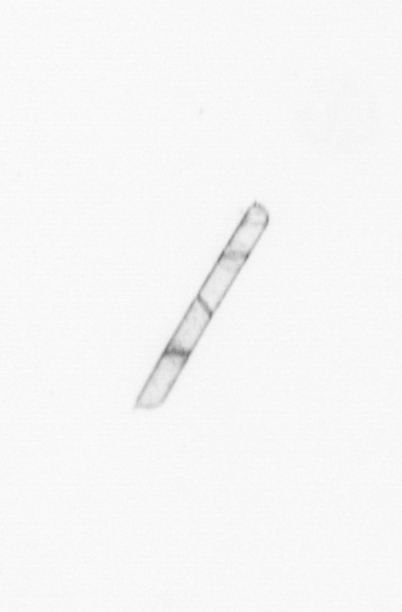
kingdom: Chromista
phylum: Ochrophyta
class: Bacillariophyceae
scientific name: Bacillariophyceae
